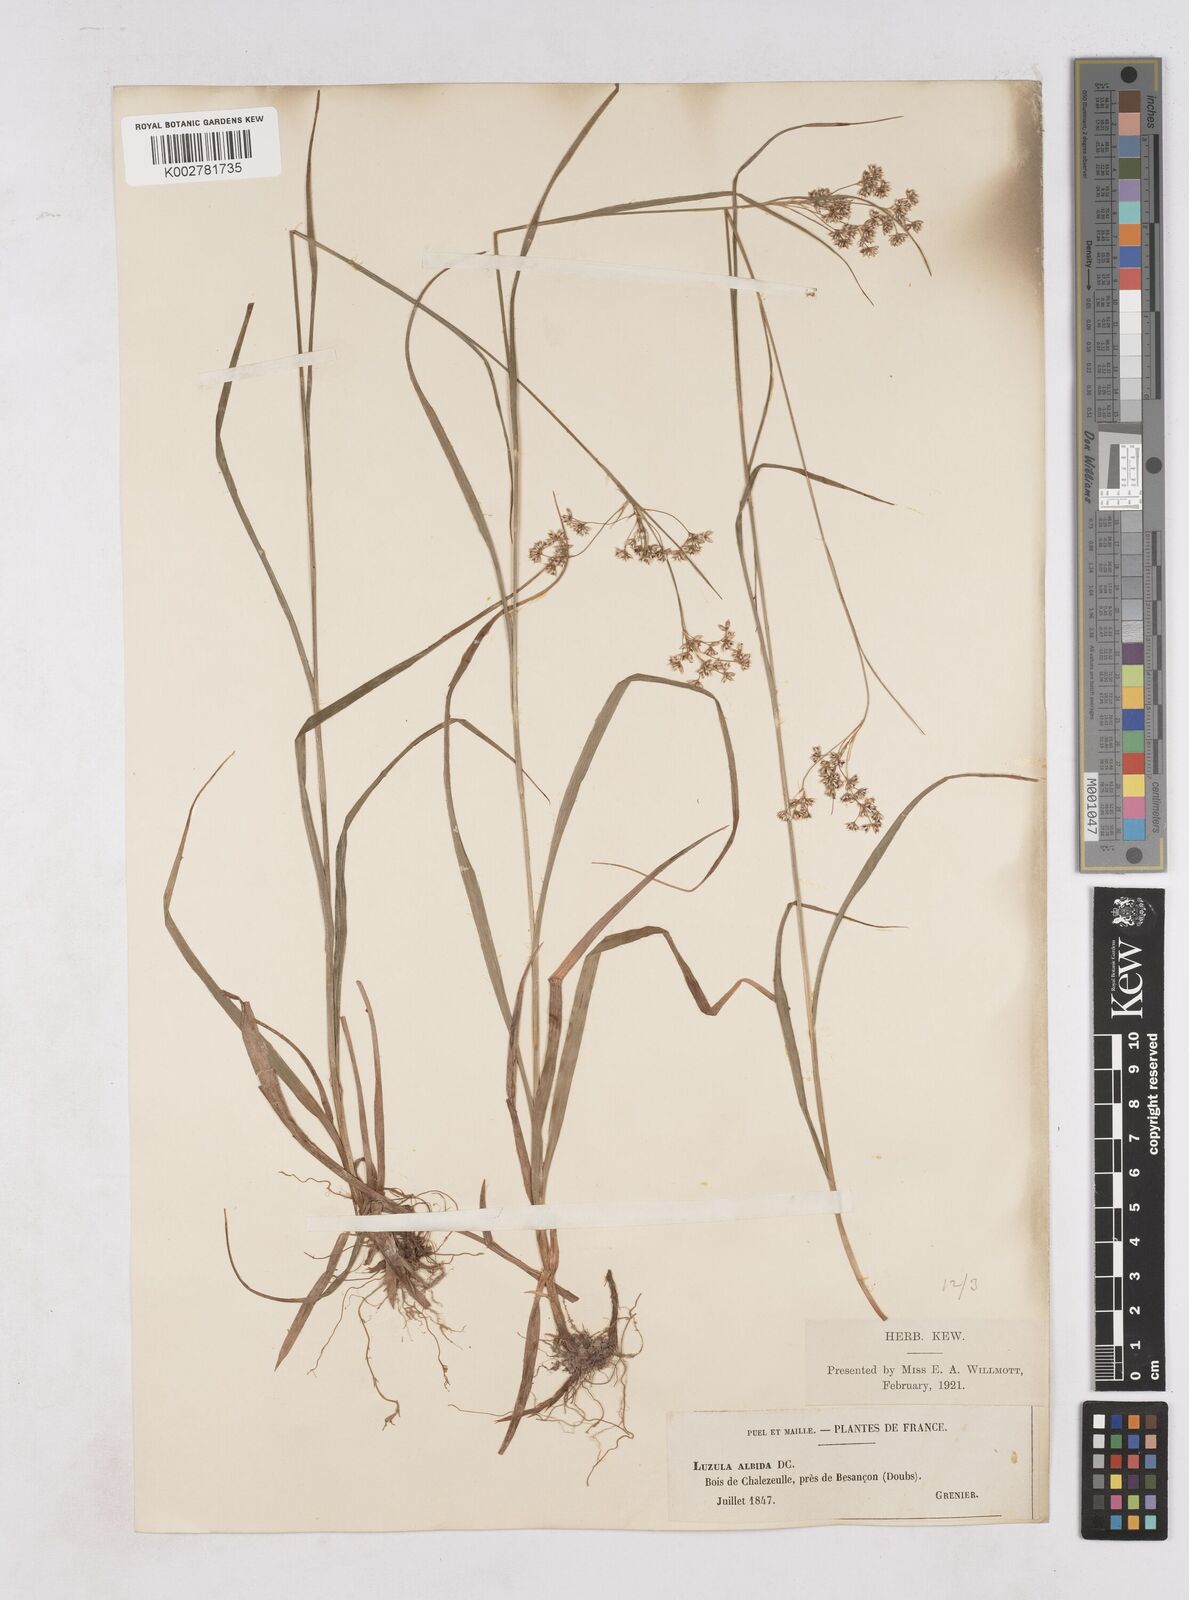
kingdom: Plantae
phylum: Tracheophyta
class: Liliopsida
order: Poales
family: Juncaceae
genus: Luzula
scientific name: Luzula luzuloides
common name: White wood-rush
